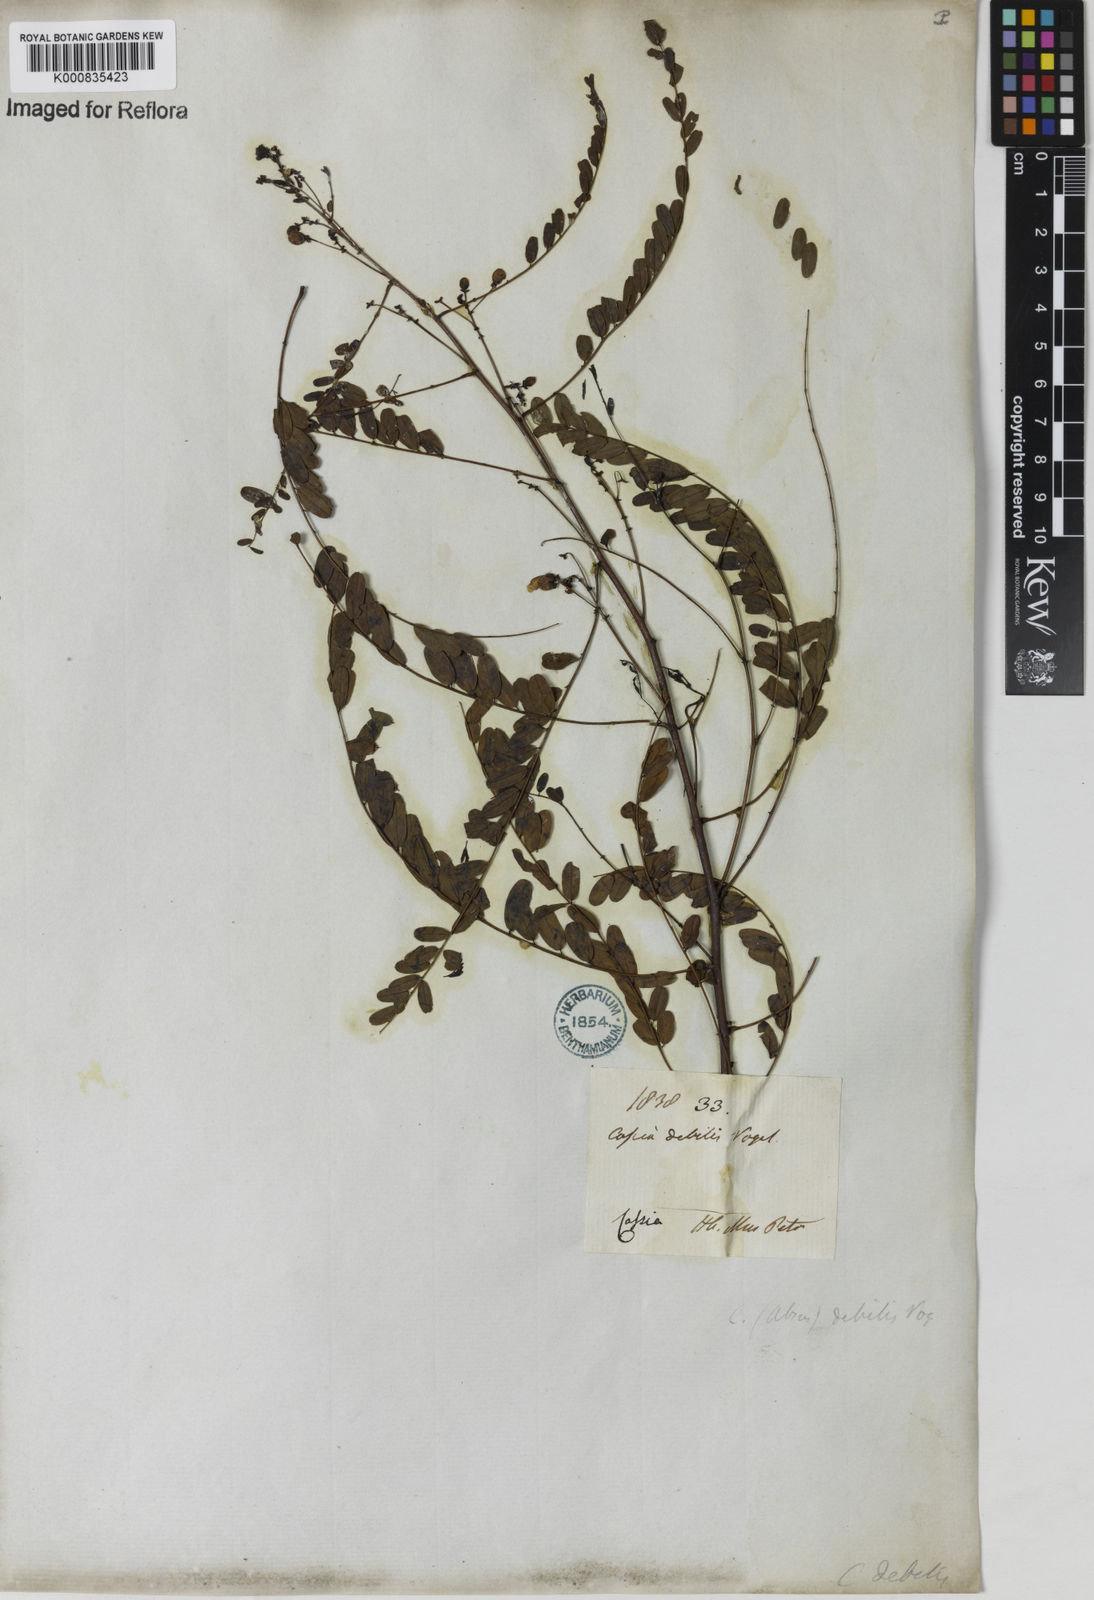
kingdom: Plantae
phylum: Tracheophyta
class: Magnoliopsida
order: Fabales
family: Fabaceae
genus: Chamaecrista
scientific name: Chamaecrista debilis
